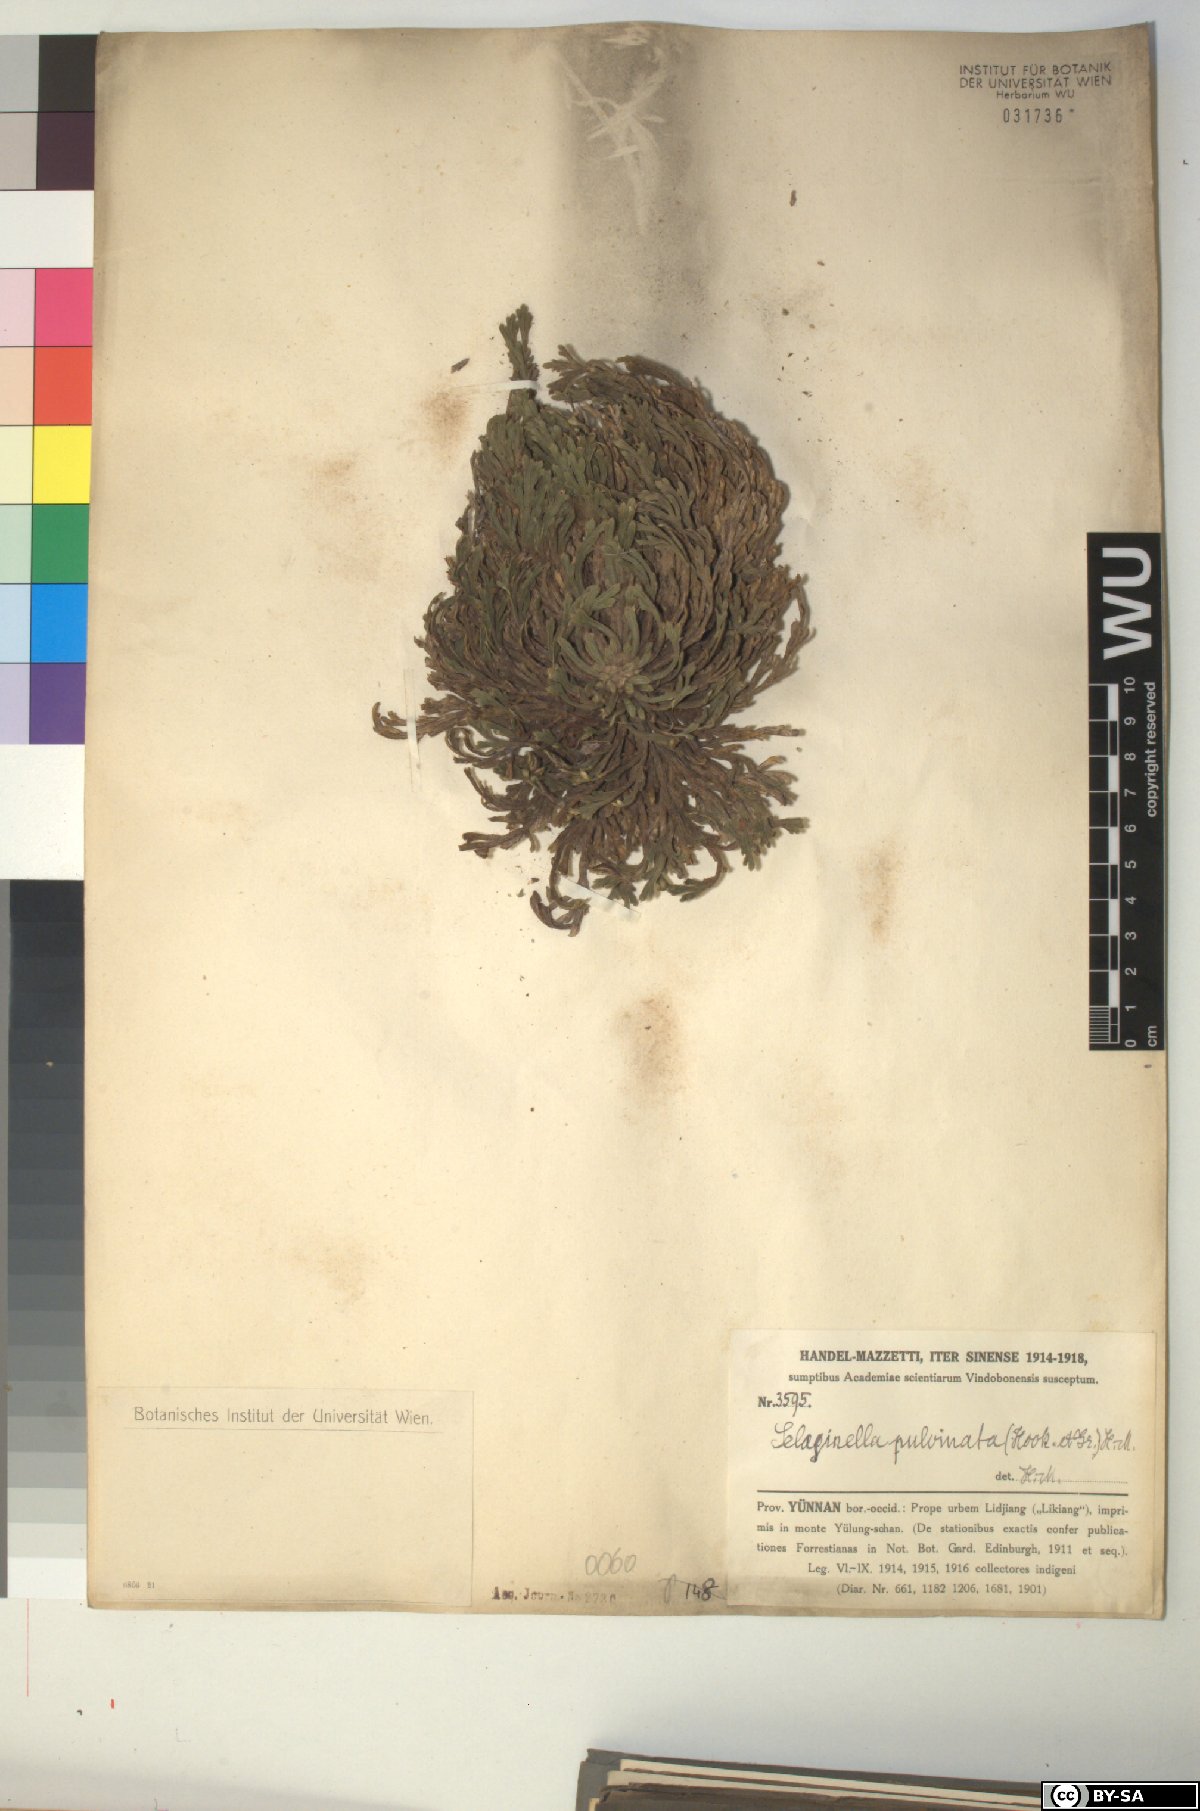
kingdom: Plantae
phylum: Tracheophyta
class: Lycopodiopsida
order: Selaginellales
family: Selaginellaceae
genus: Selaginella
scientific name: Selaginella pulvinata
